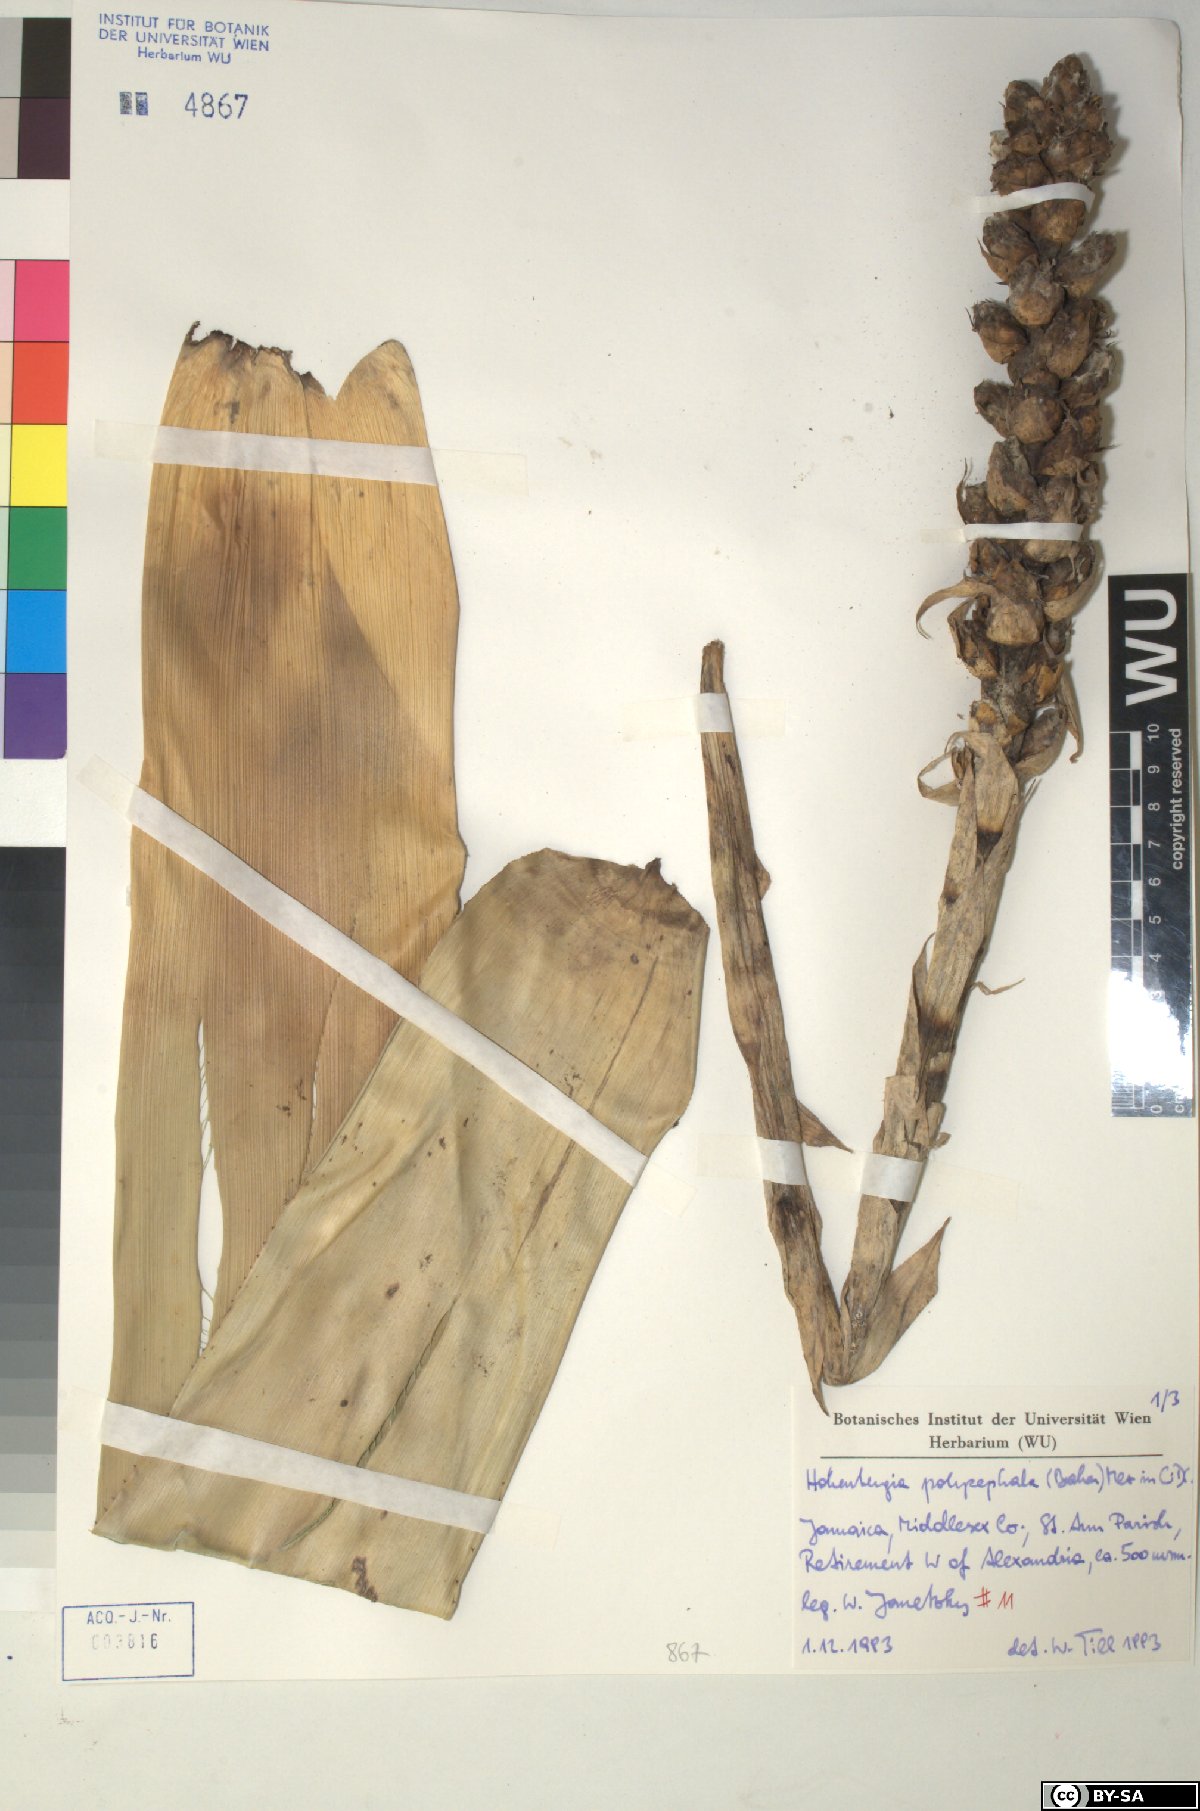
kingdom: Plantae
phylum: Tracheophyta
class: Liliopsida
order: Poales
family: Bromeliaceae
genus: Wittmackia
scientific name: Wittmackia polycephala
